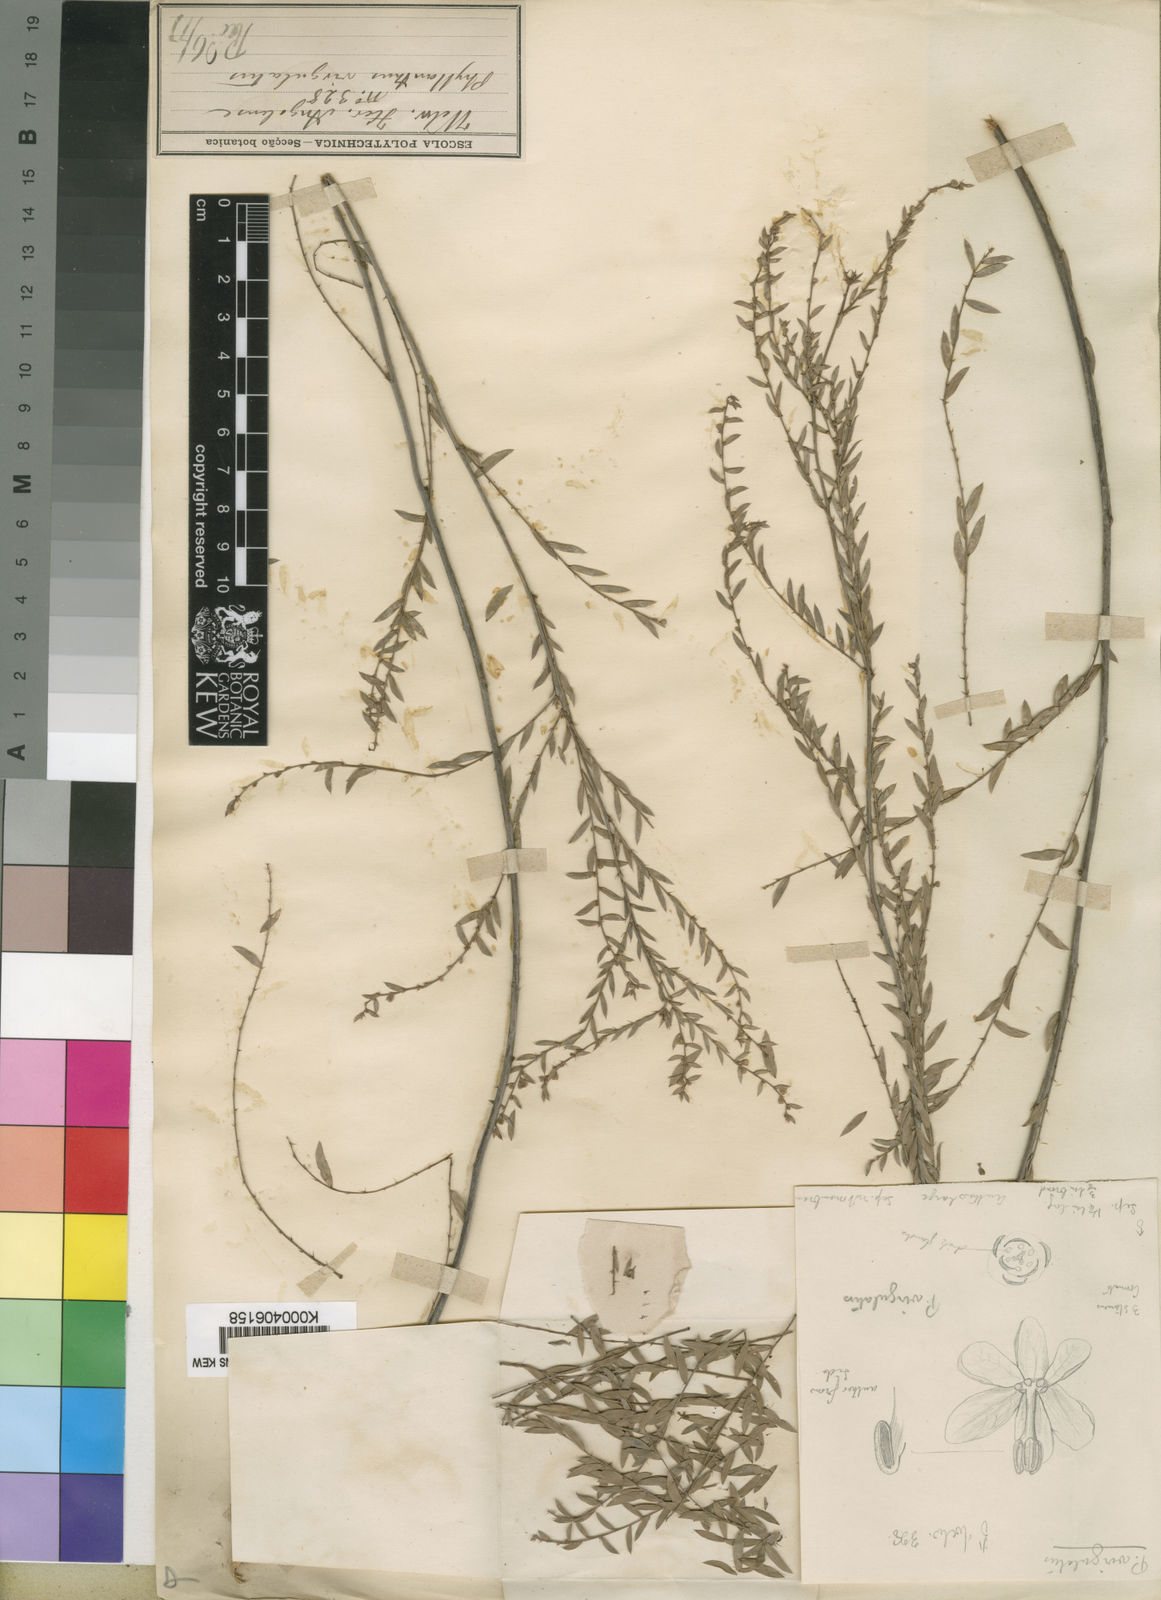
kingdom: Plantae
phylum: Tracheophyta
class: Magnoliopsida
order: Malpighiales
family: Phyllanthaceae
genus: Phyllanthus
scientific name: Phyllanthus
